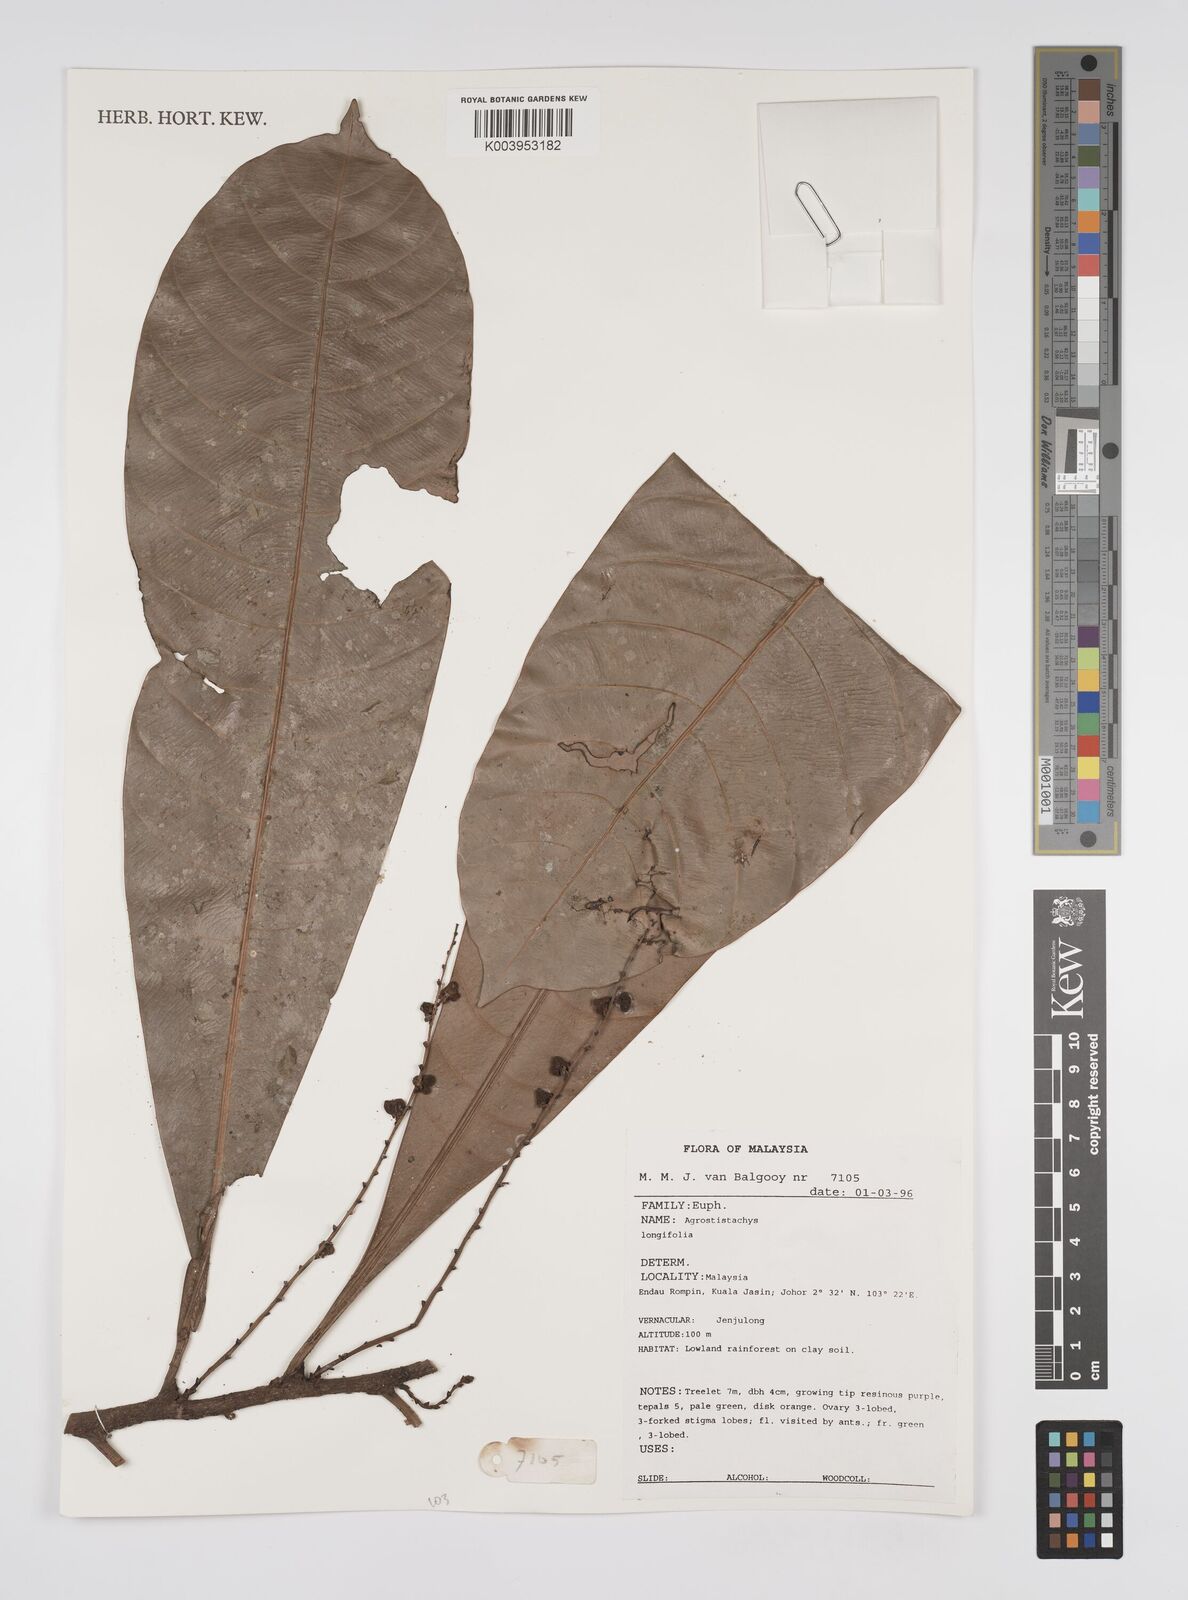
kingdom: Plantae
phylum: Tracheophyta
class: Magnoliopsida
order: Malpighiales
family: Euphorbiaceae
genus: Agrostistachys
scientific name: Agrostistachys borneensis
